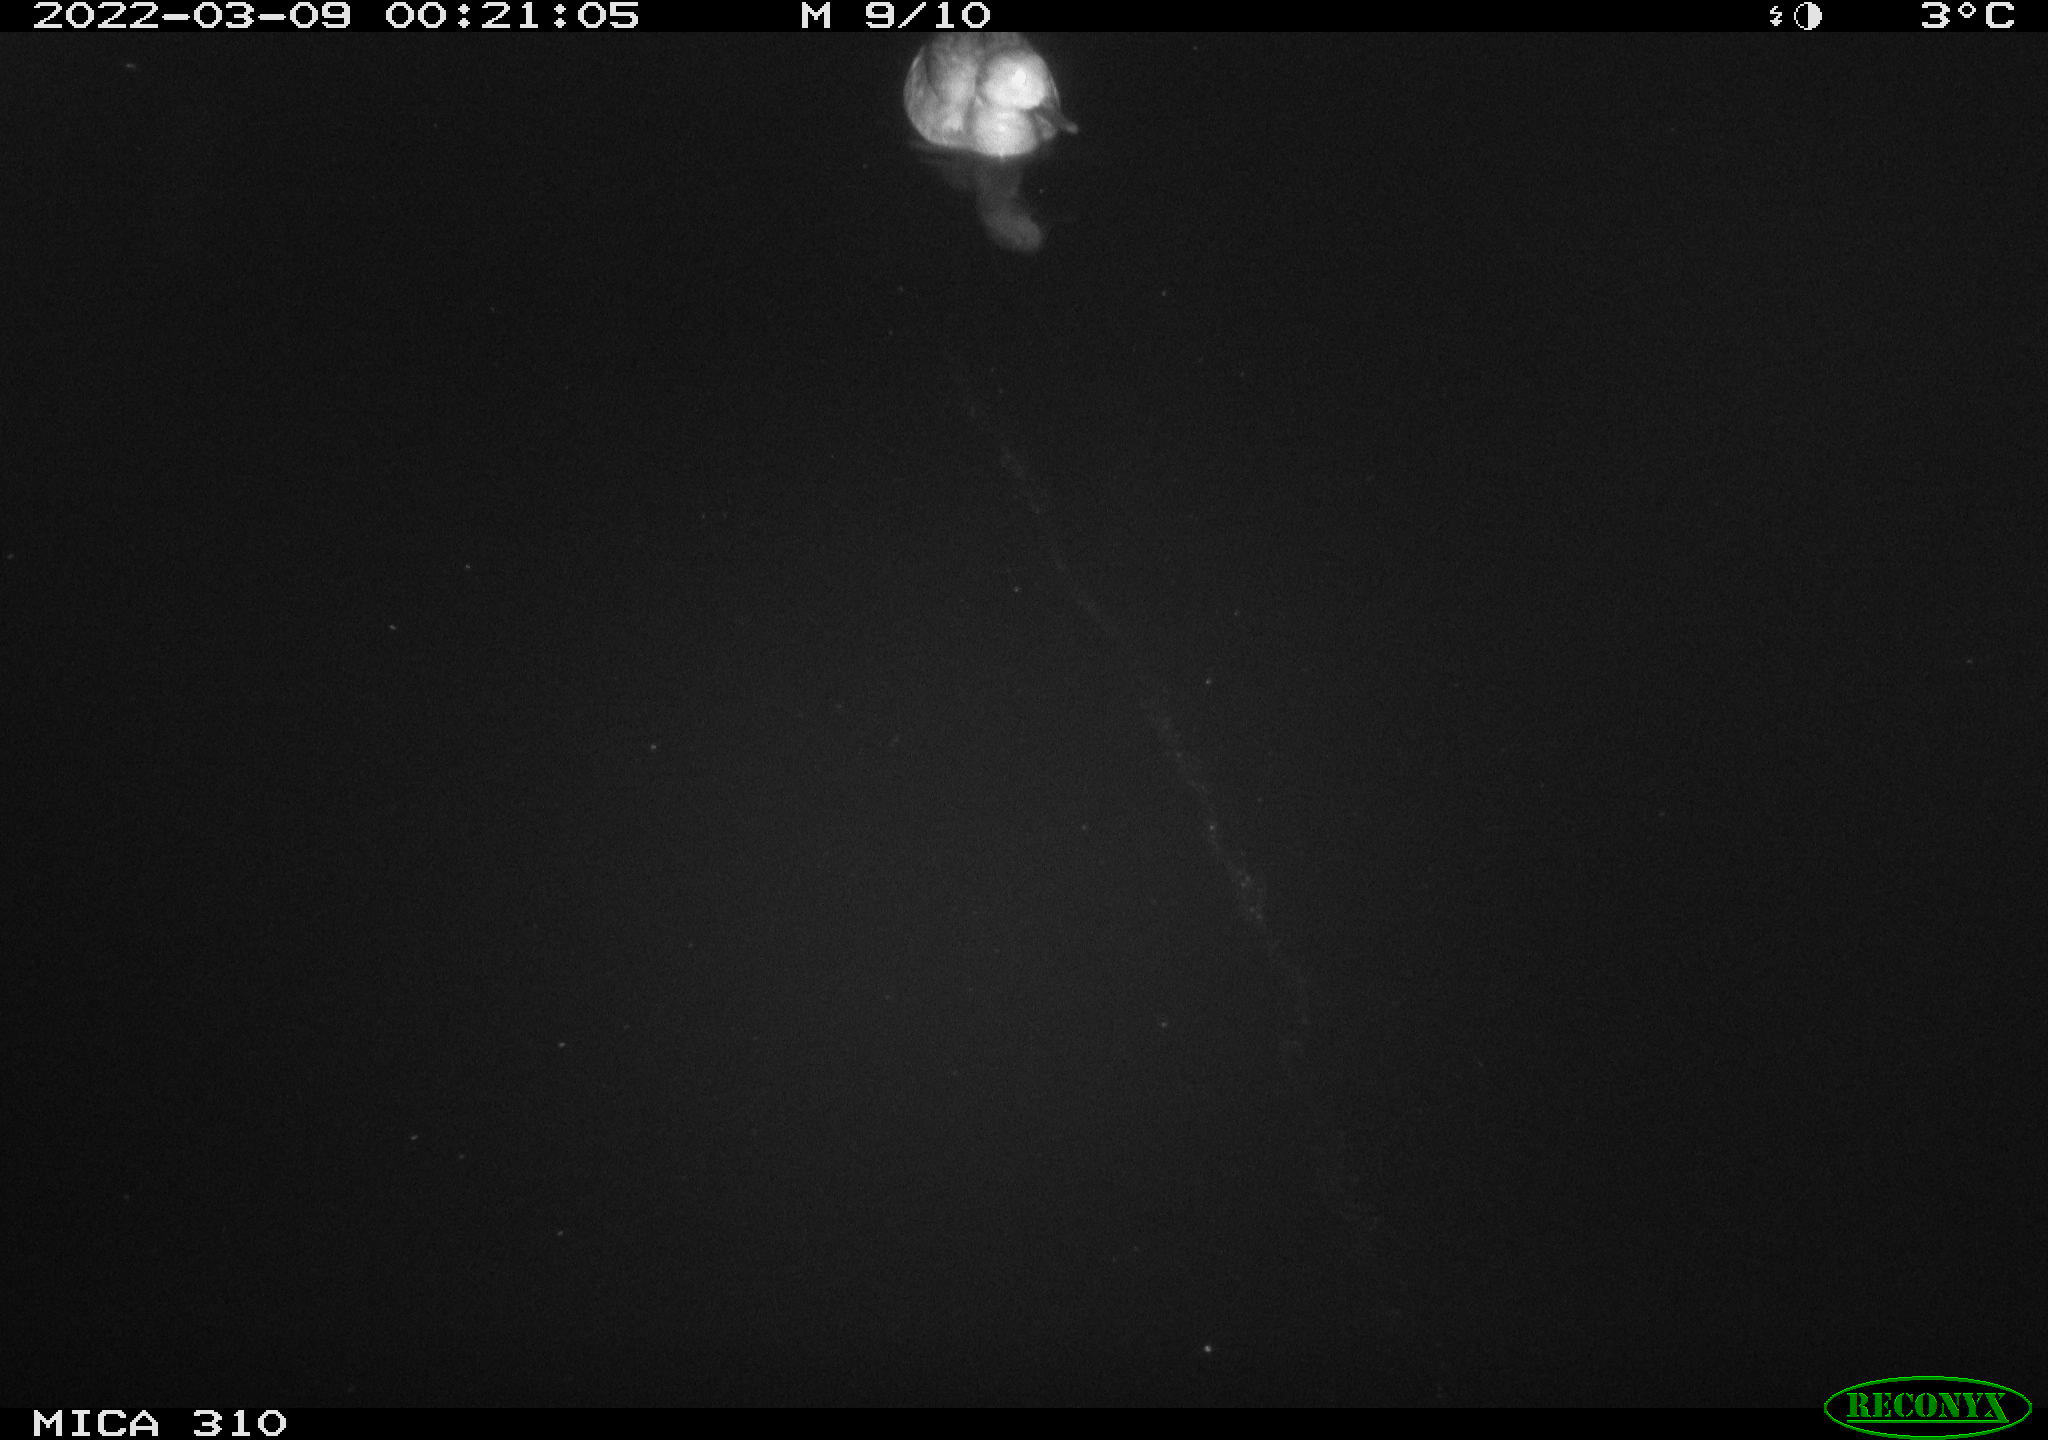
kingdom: Animalia
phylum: Chordata
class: Aves
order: Anseriformes
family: Anatidae
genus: Anas
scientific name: Anas platyrhynchos
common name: Mallard
